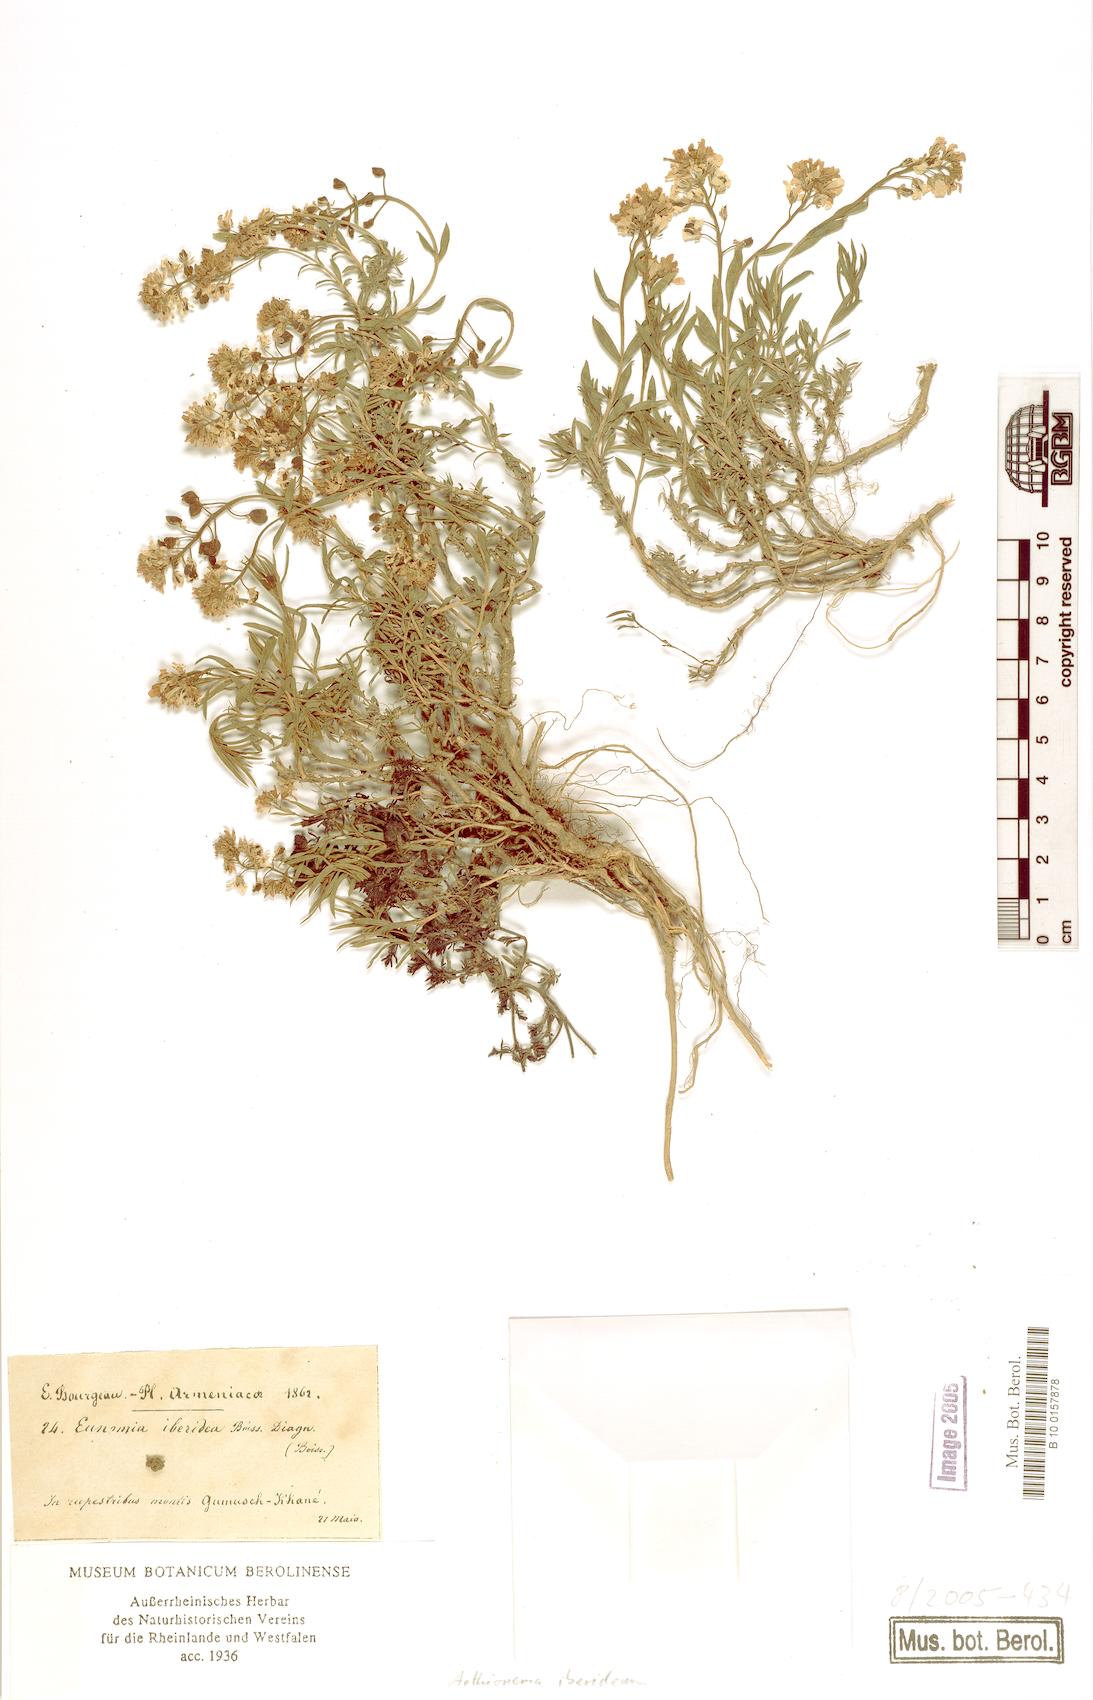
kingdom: Plantae
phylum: Tracheophyta
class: Magnoliopsida
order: Brassicales
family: Brassicaceae
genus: Noccaea
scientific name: Noccaea iberidea
